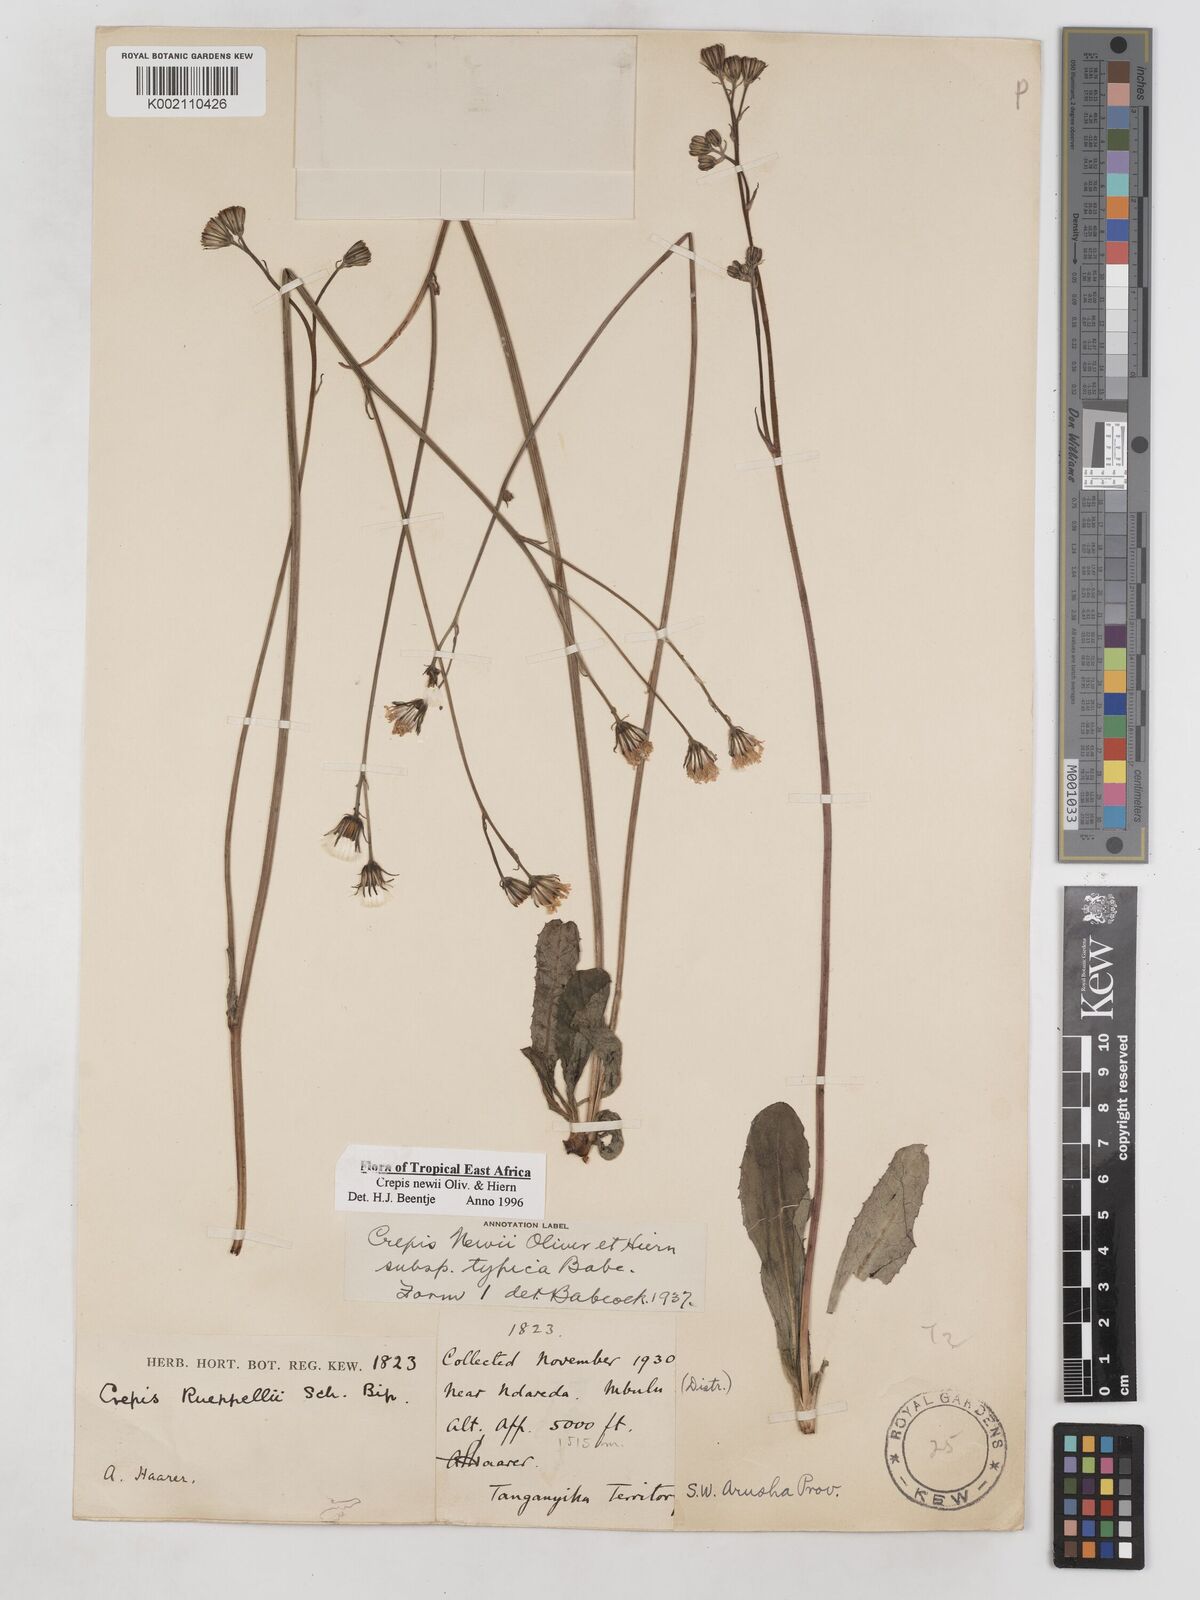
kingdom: Plantae
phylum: Tracheophyta
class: Magnoliopsida
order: Asterales
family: Asteraceae
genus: Crepis
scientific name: Crepis hypochoeridea
